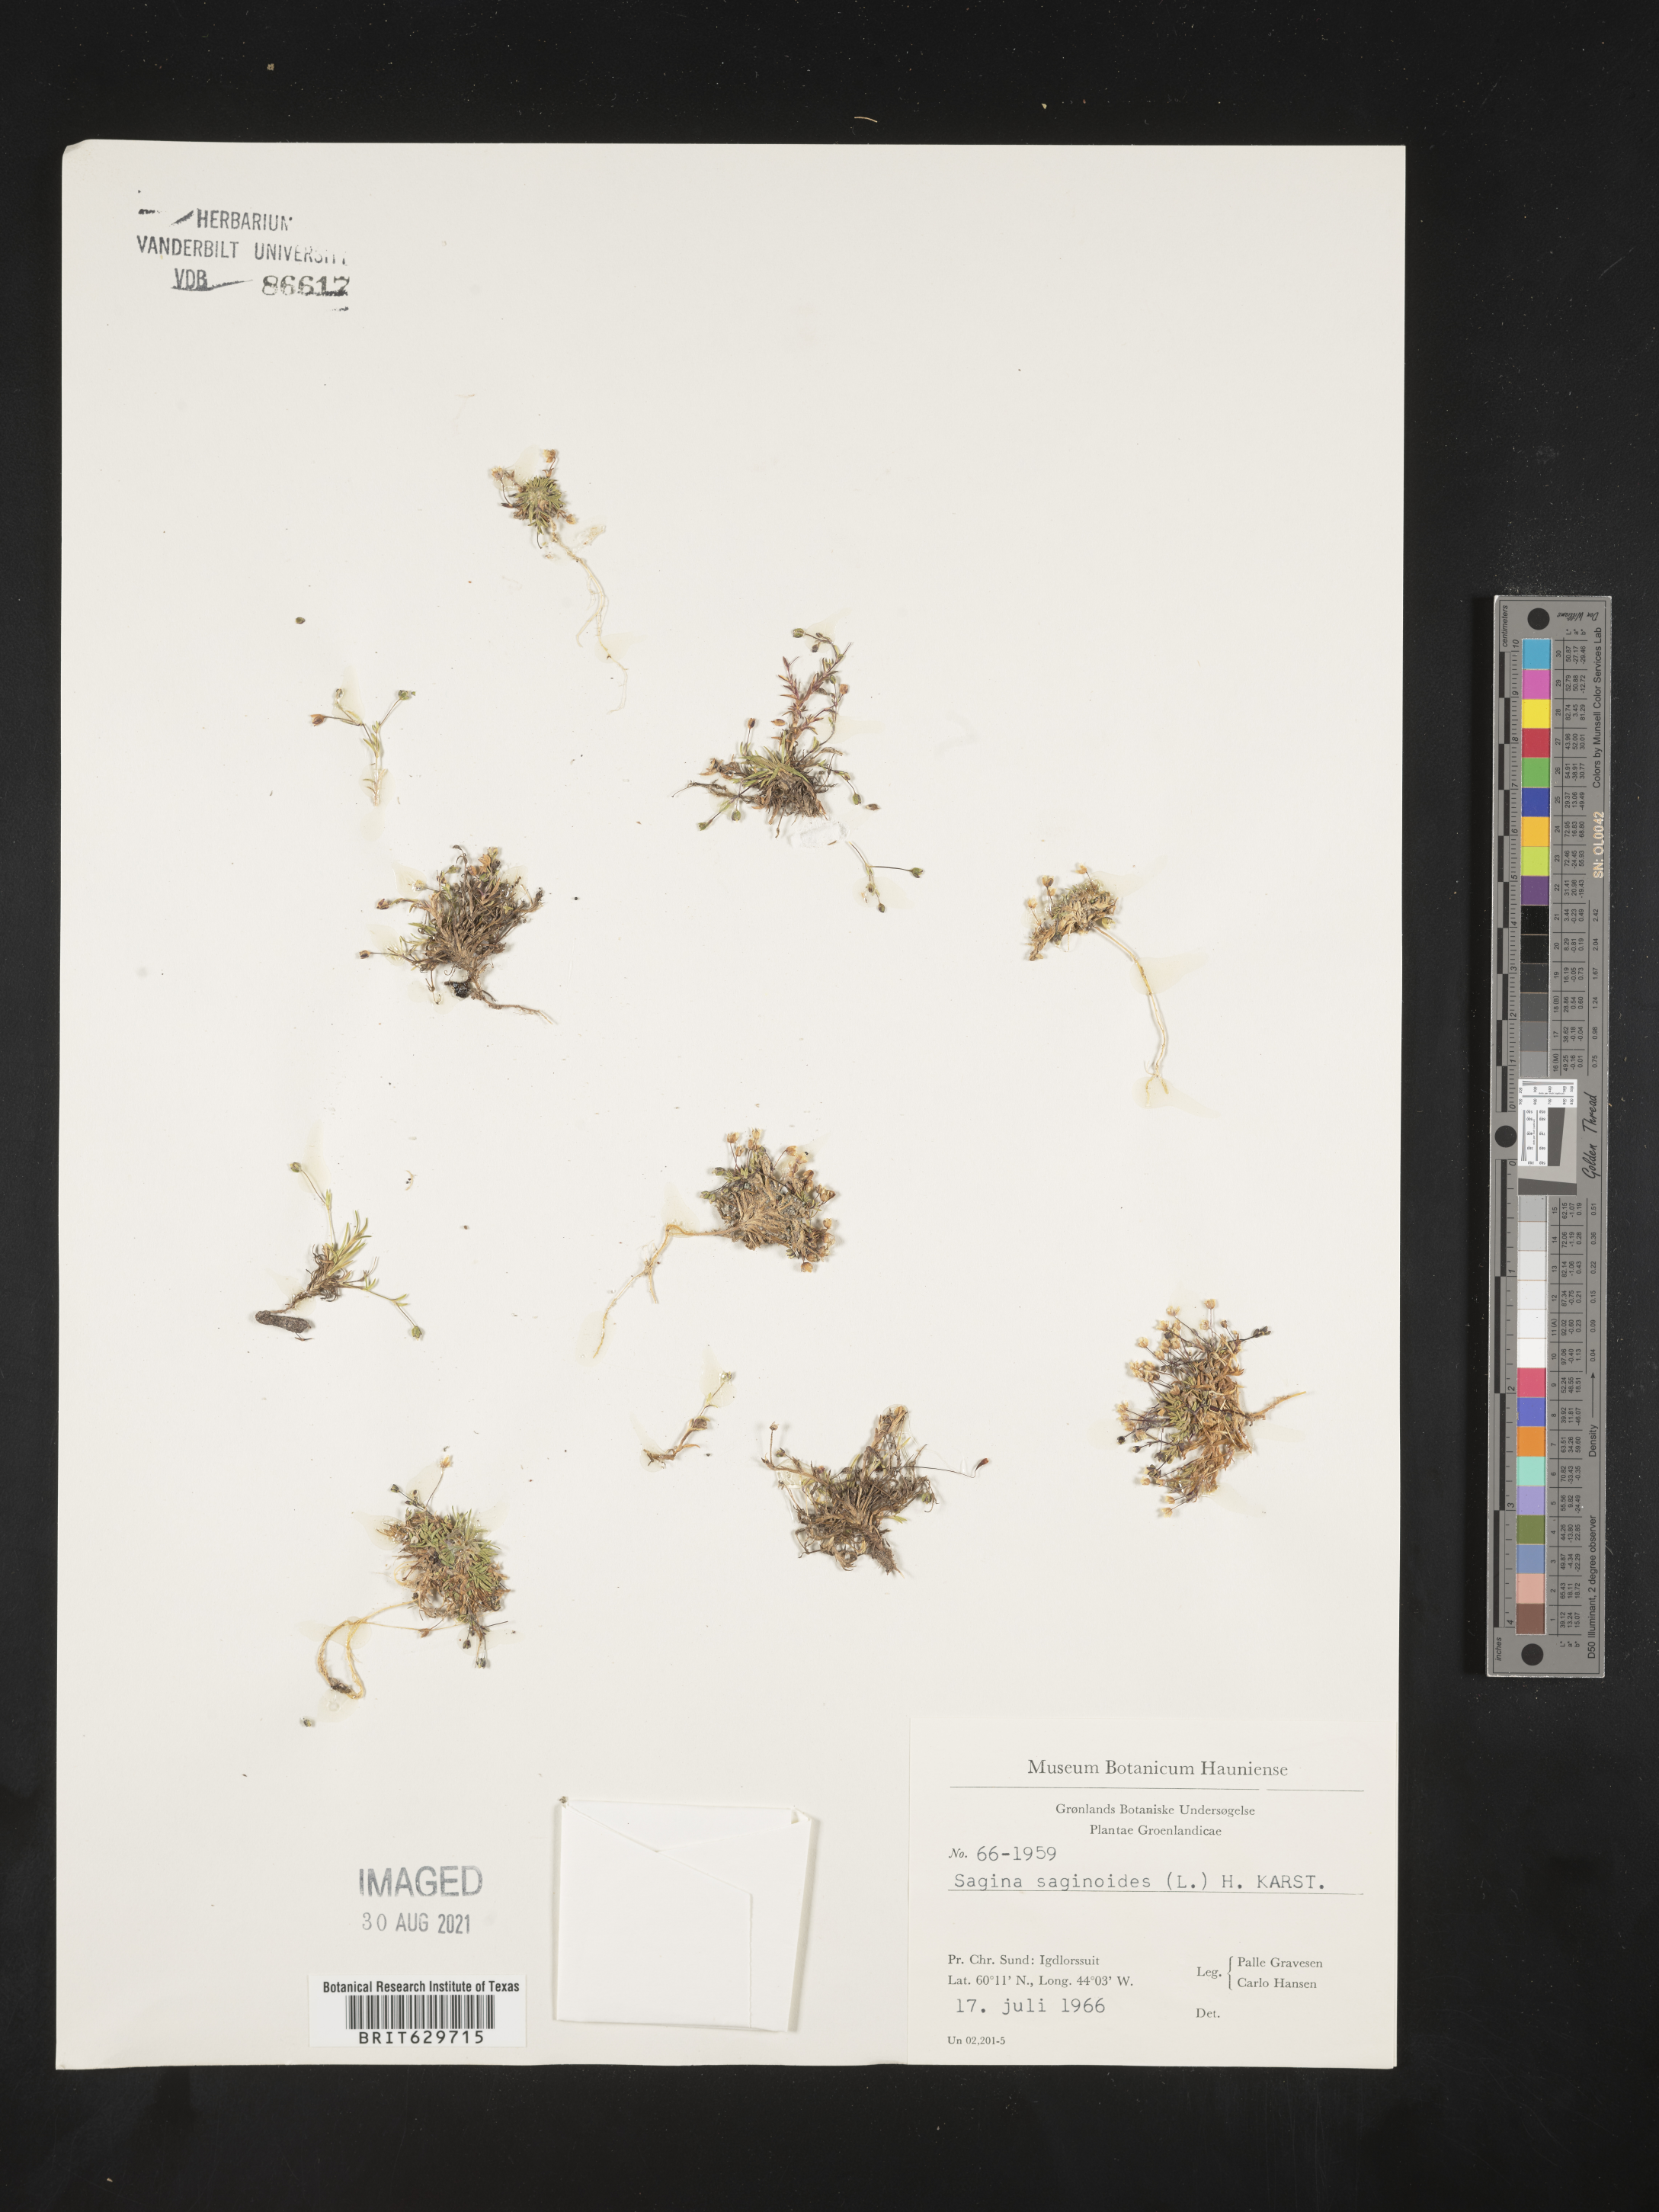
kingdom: Plantae
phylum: Tracheophyta
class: Magnoliopsida
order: Caryophyllales
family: Caryophyllaceae
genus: Sagina
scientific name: Sagina saginoides
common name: Alpine pearlwort
